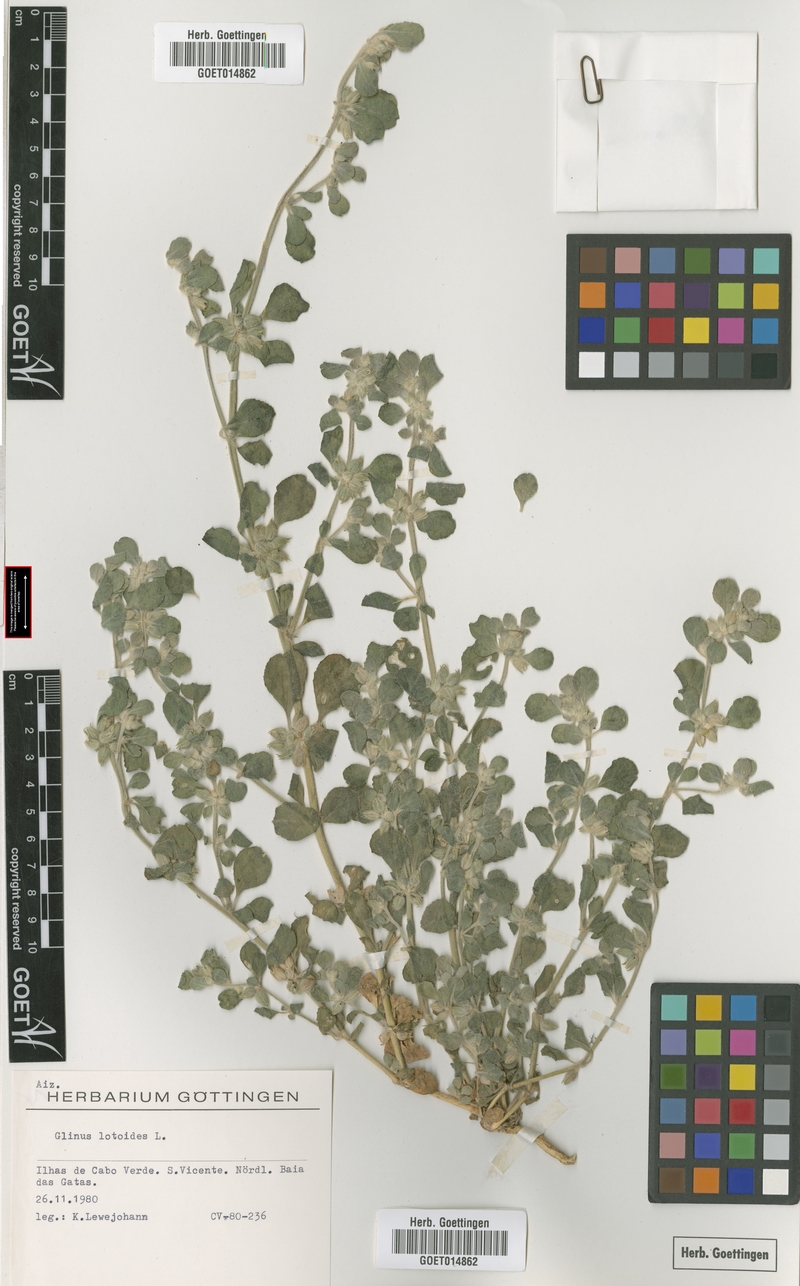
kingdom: Plantae
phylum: Tracheophyta
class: Magnoliopsida
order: Caryophyllales
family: Molluginaceae
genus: Glinus
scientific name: Glinus lotoides
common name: Lotus sweetjuice
